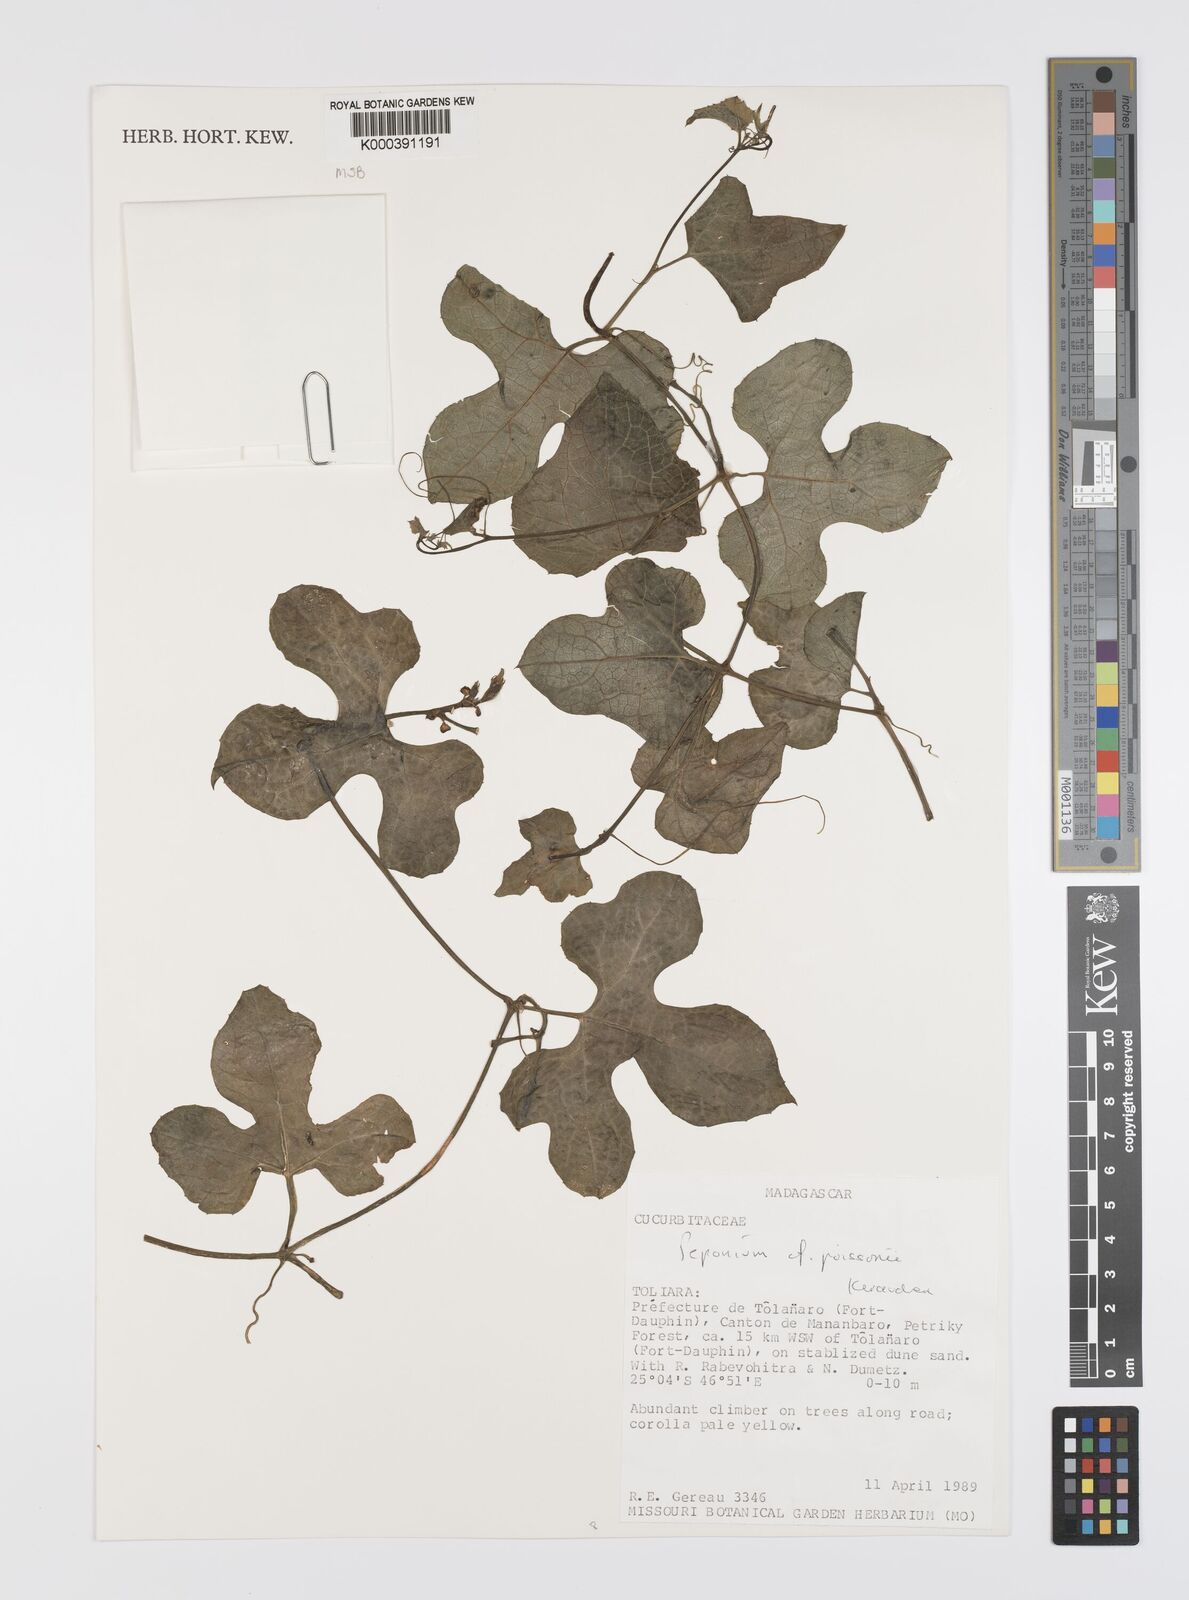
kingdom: Plantae
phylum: Tracheophyta
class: Magnoliopsida
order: Cucurbitales
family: Cucurbitaceae
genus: Peponium
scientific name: Peponium poissonii
